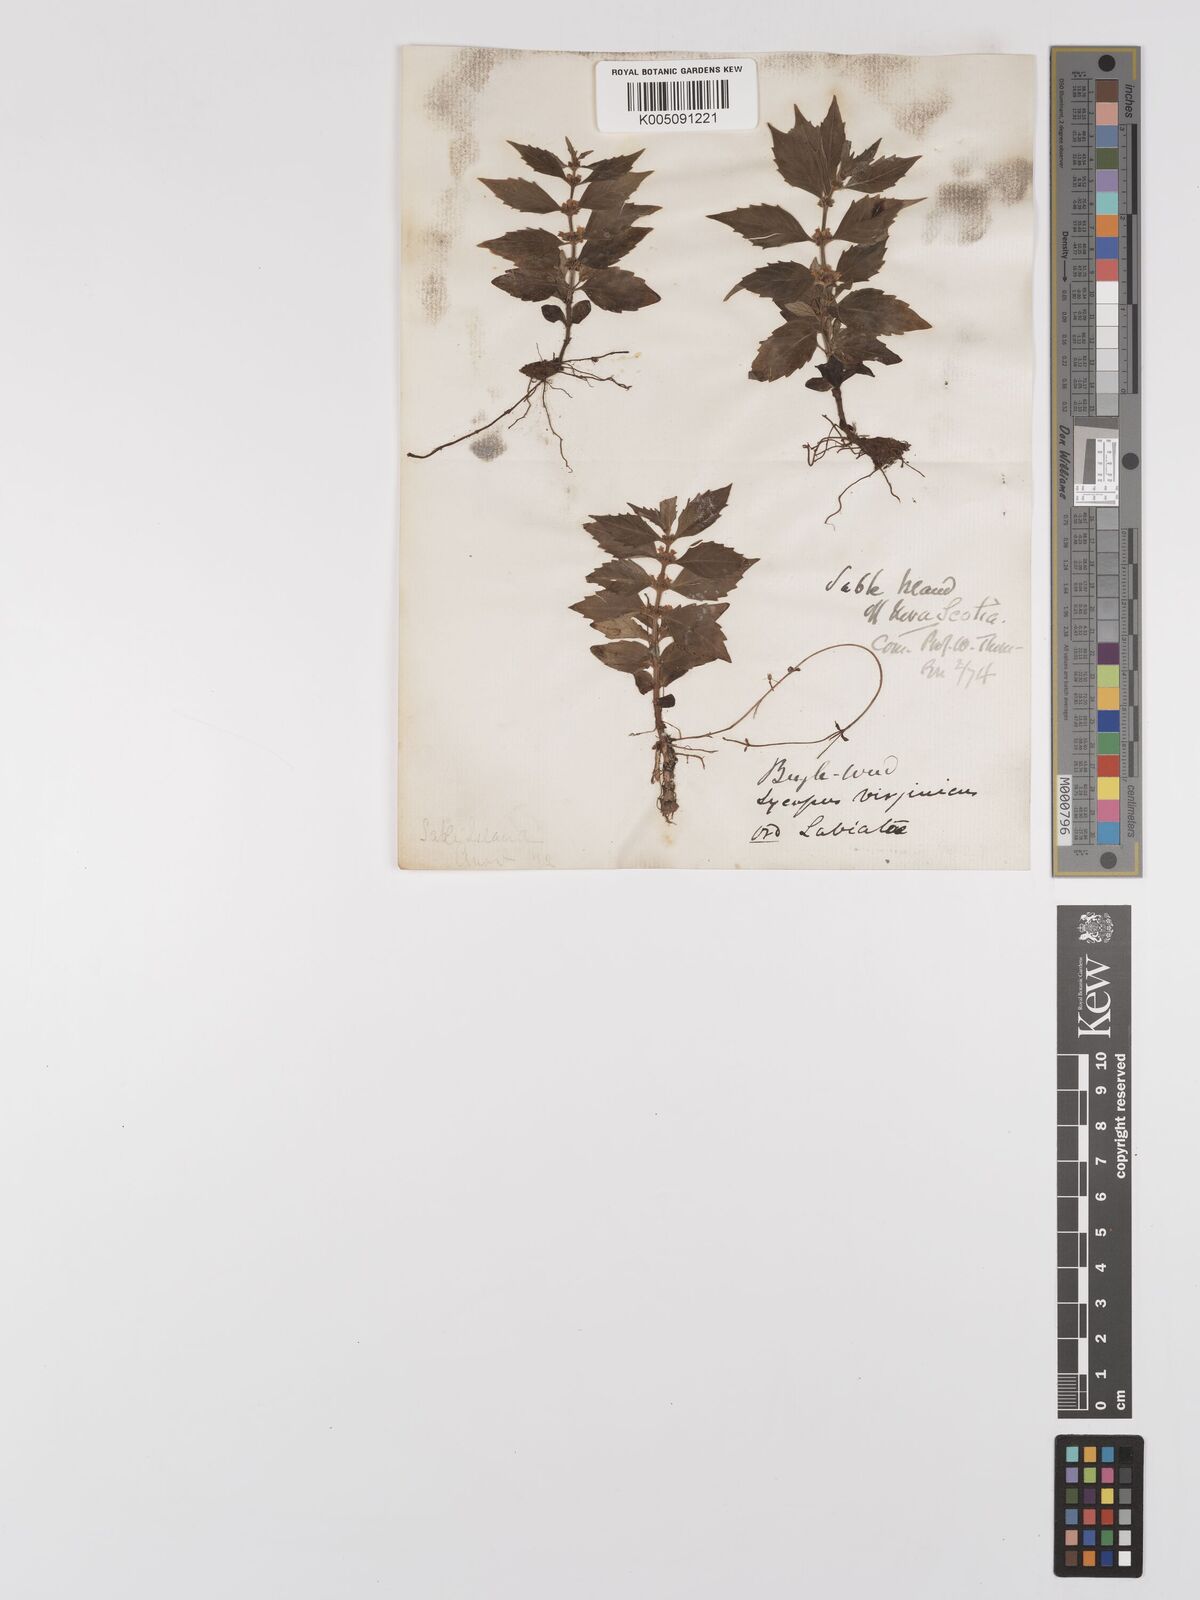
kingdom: Plantae
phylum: Tracheophyta
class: Magnoliopsida
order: Lamiales
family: Lamiaceae
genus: Lycopus
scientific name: Lycopus virginicus
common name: Bugleweed
